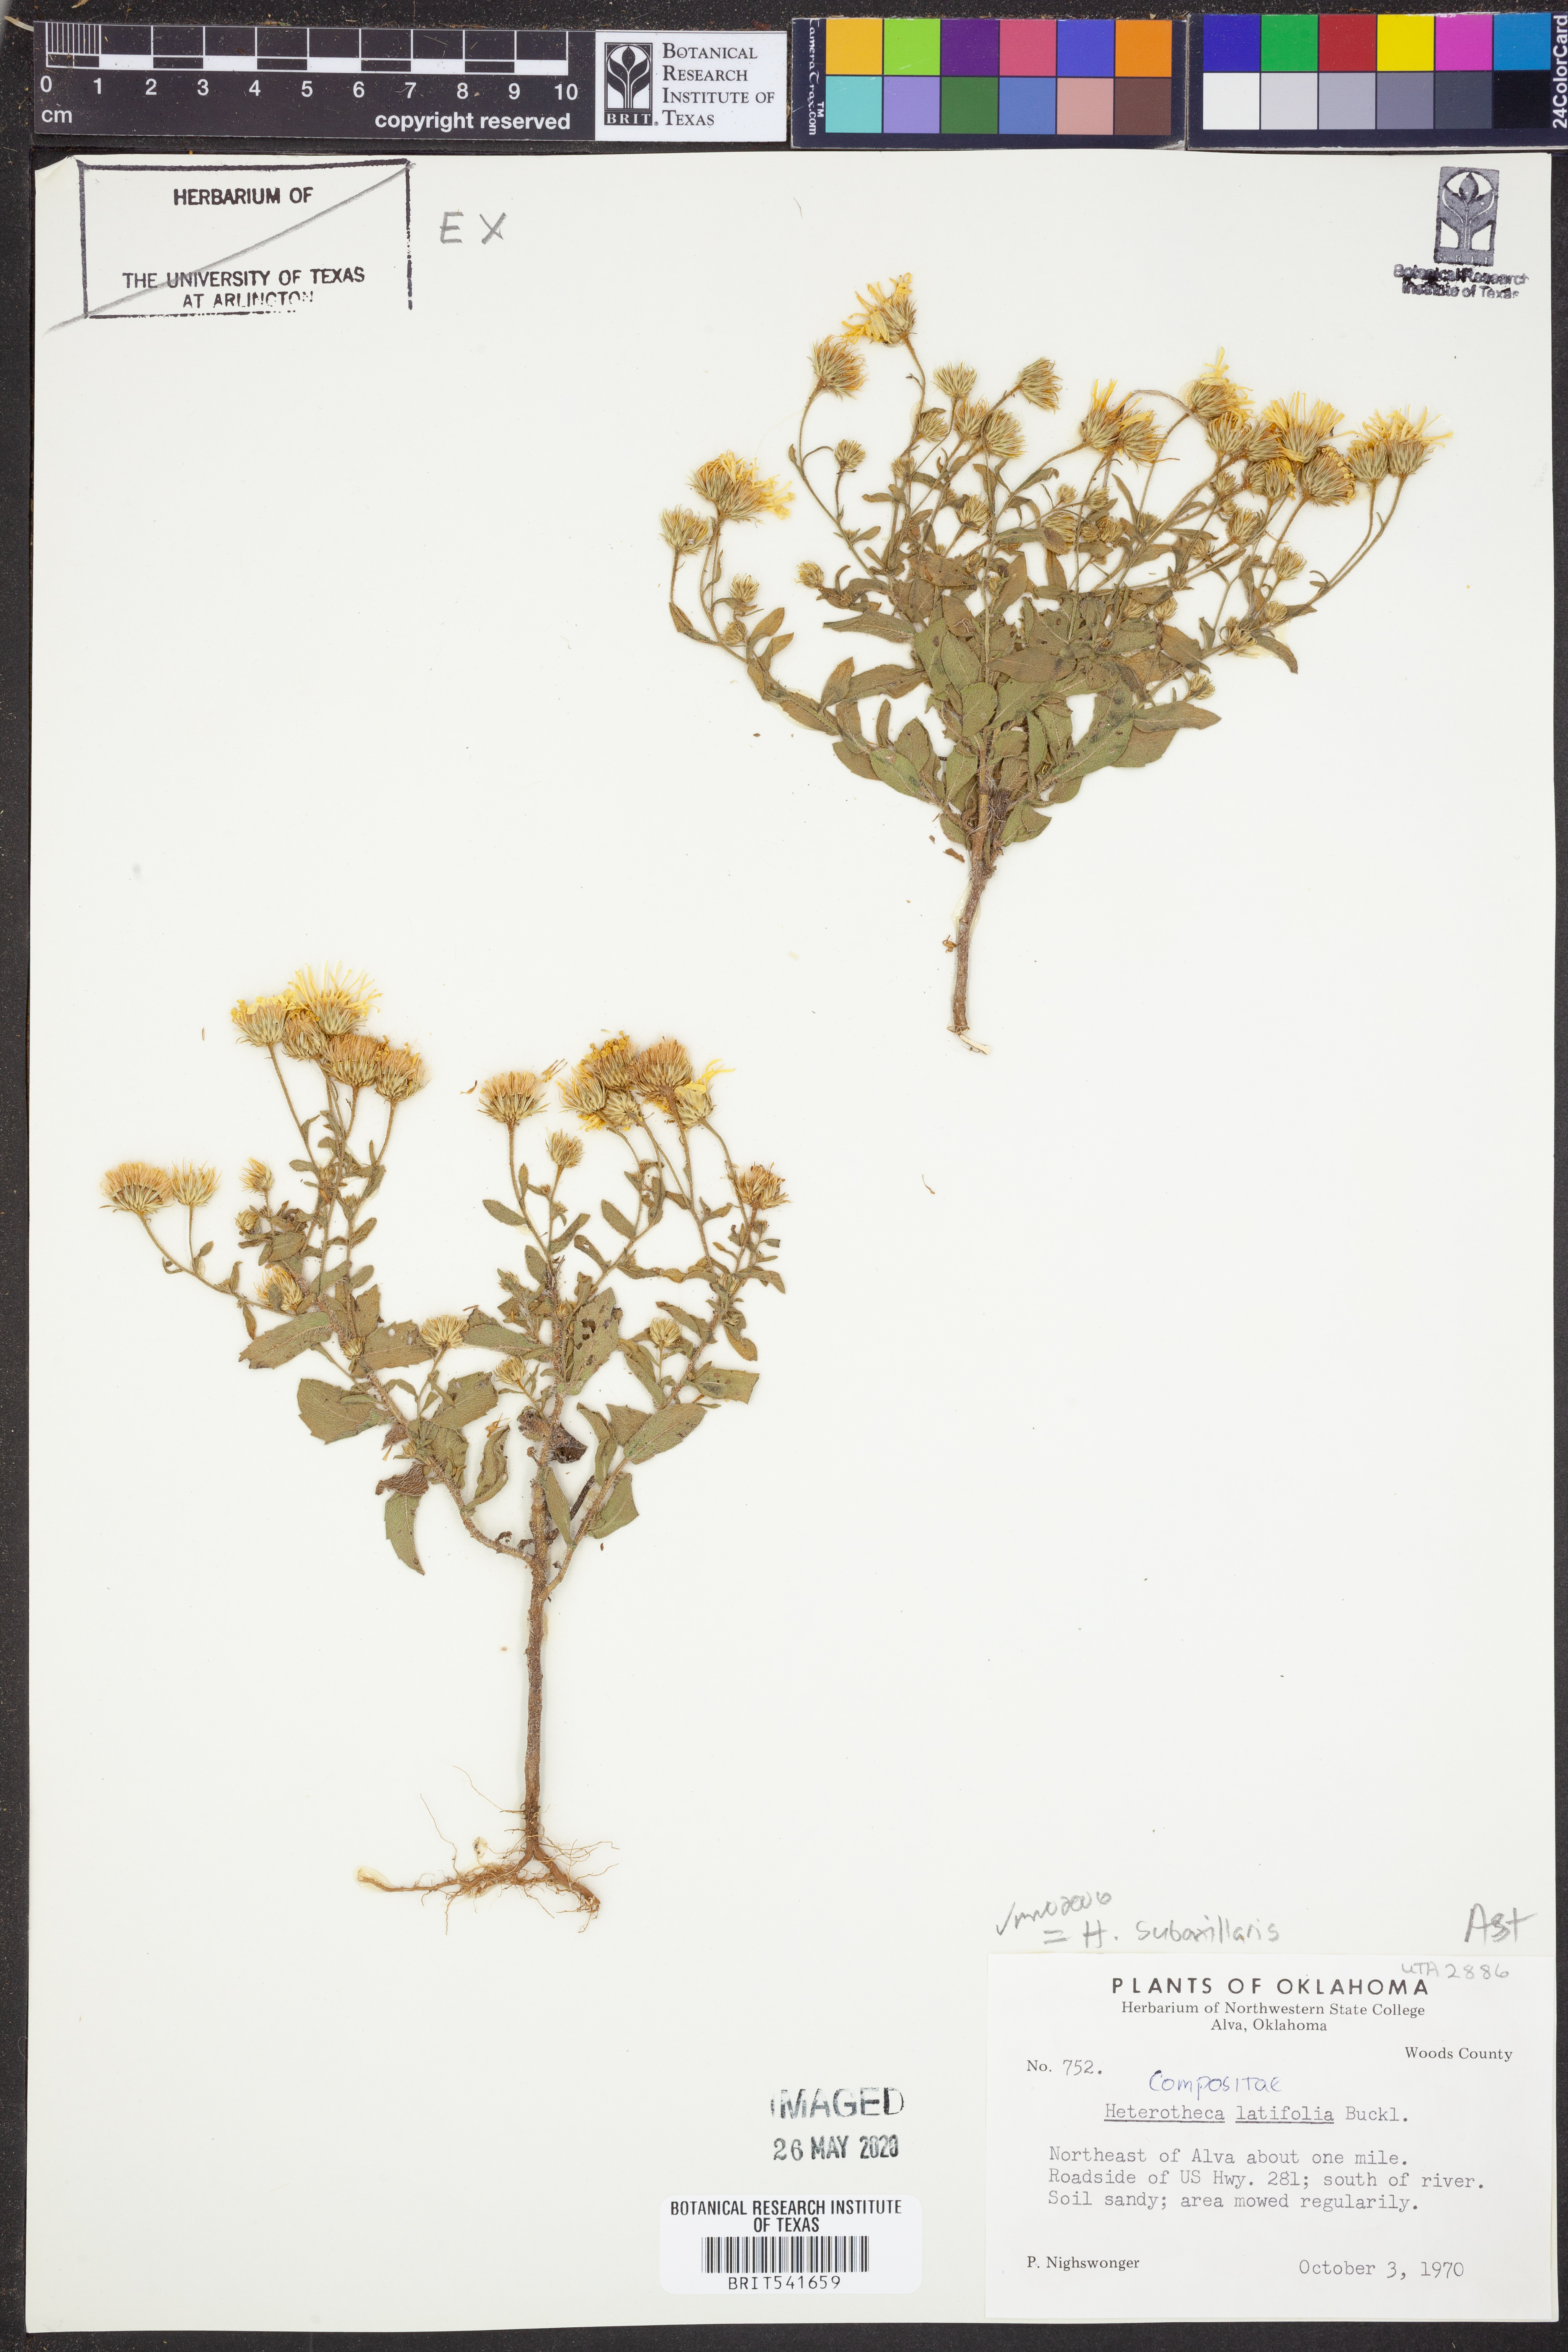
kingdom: Plantae
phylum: Tracheophyta
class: Magnoliopsida
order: Asterales
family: Asteraceae
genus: Heterotheca
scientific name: Heterotheca subaxillaris
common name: Camphorweed
